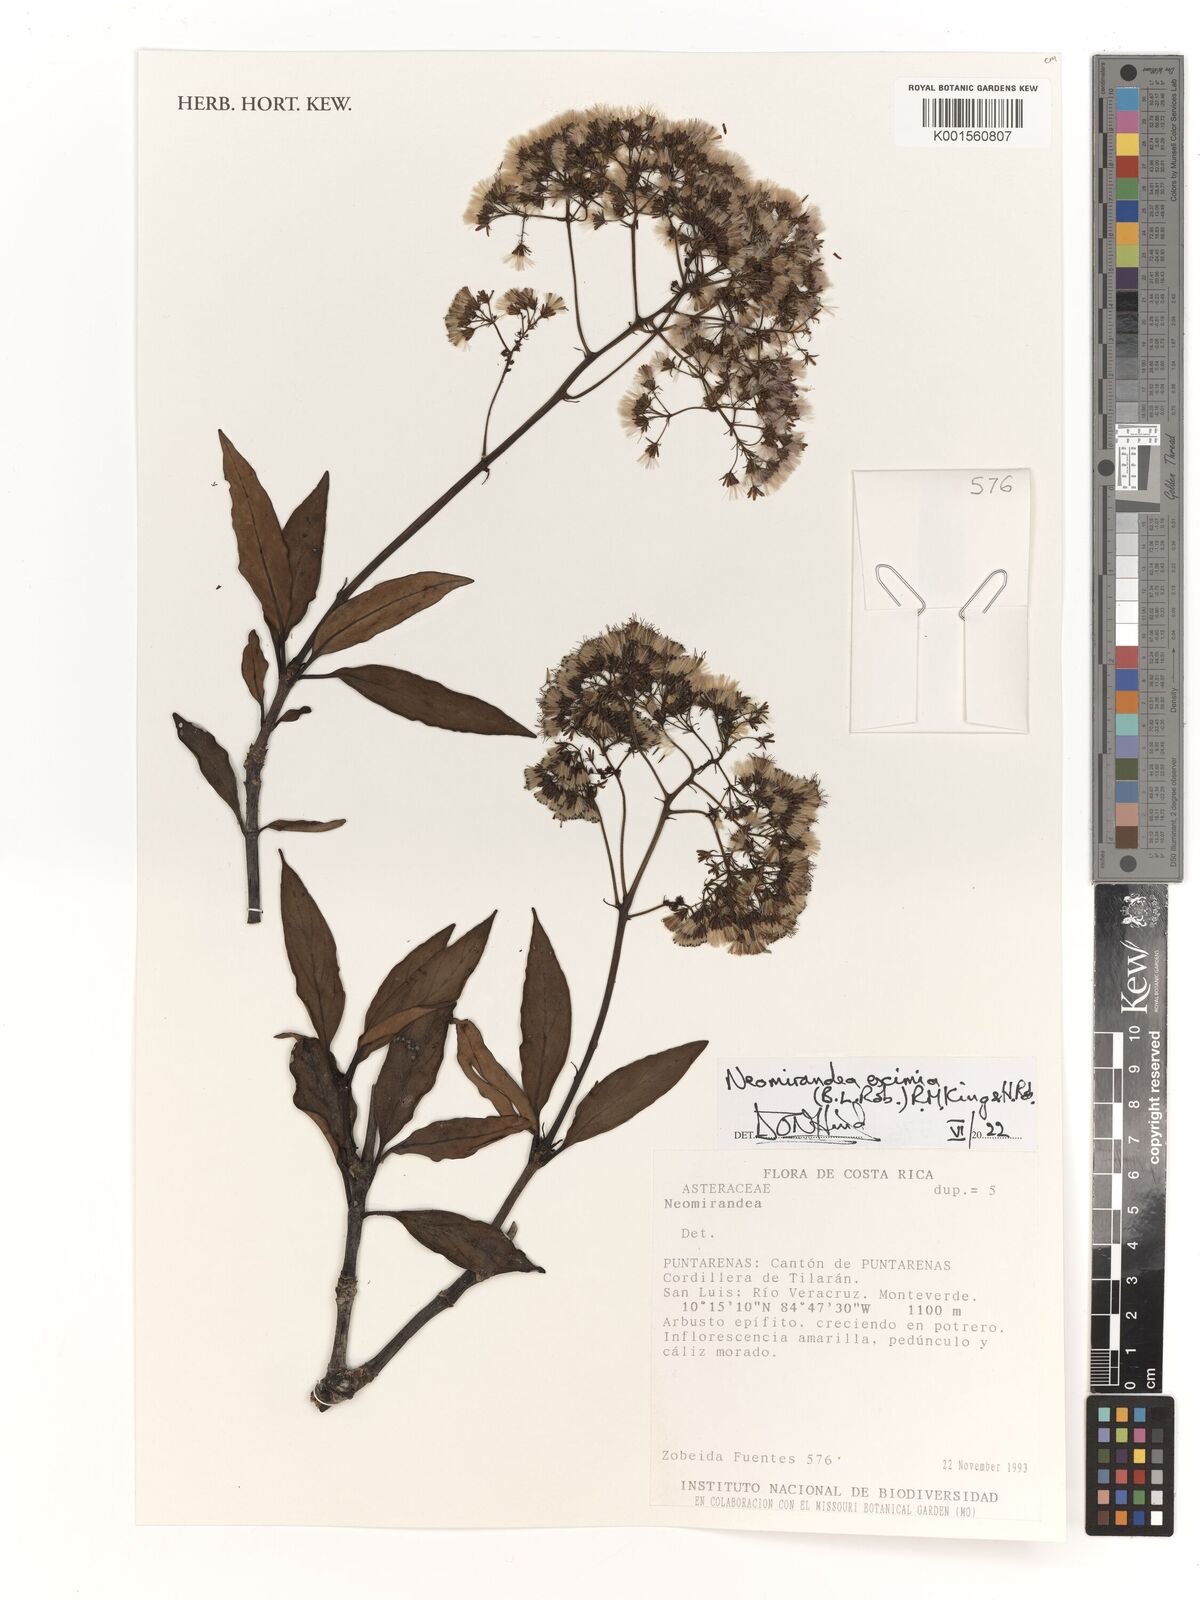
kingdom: Plantae
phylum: Tracheophyta
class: Magnoliopsida
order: Asterales
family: Asteraceae
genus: Neomirandea
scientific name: Neomirandea eximia
